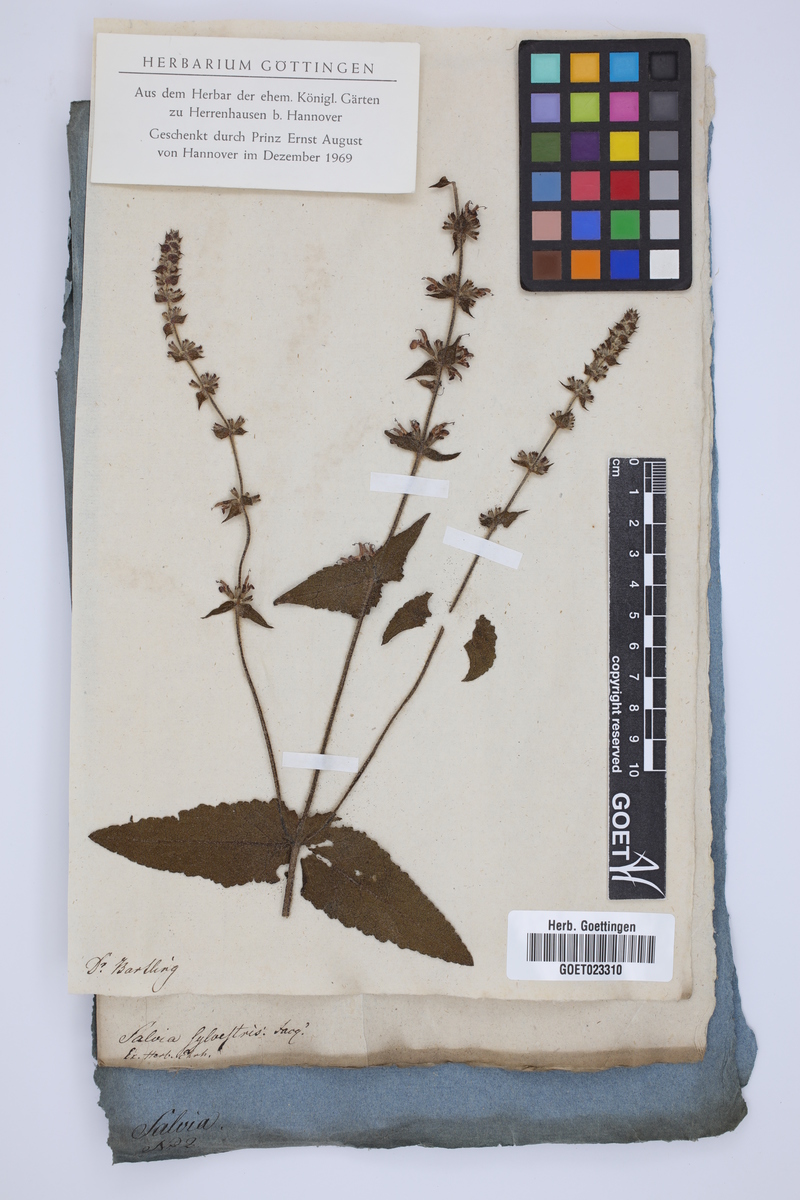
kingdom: Plantae
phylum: Tracheophyta
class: Magnoliopsida
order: Lamiales
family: Lamiaceae
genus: Salvia
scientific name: Salvia sylvestris
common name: Woodland sage
